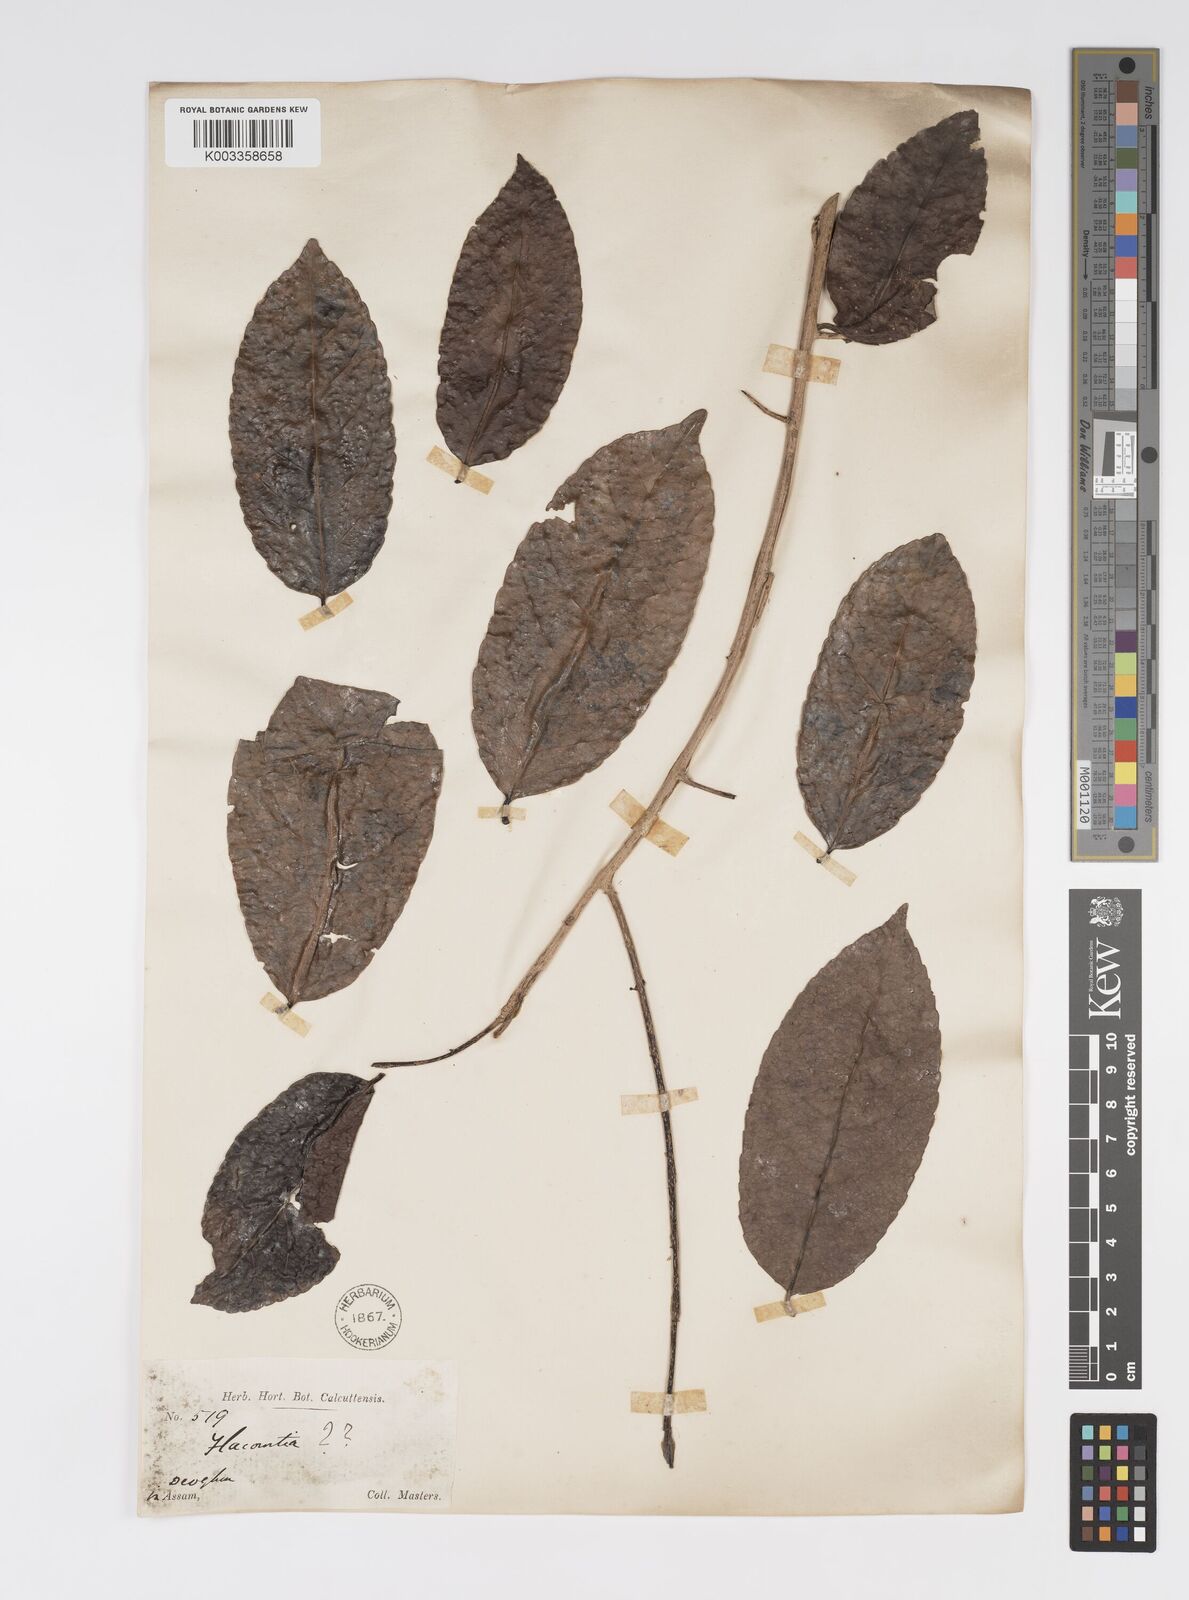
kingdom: Plantae
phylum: Tracheophyta
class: Magnoliopsida
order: Malpighiales
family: Salicaceae
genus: Xylosma
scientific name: Xylosma
